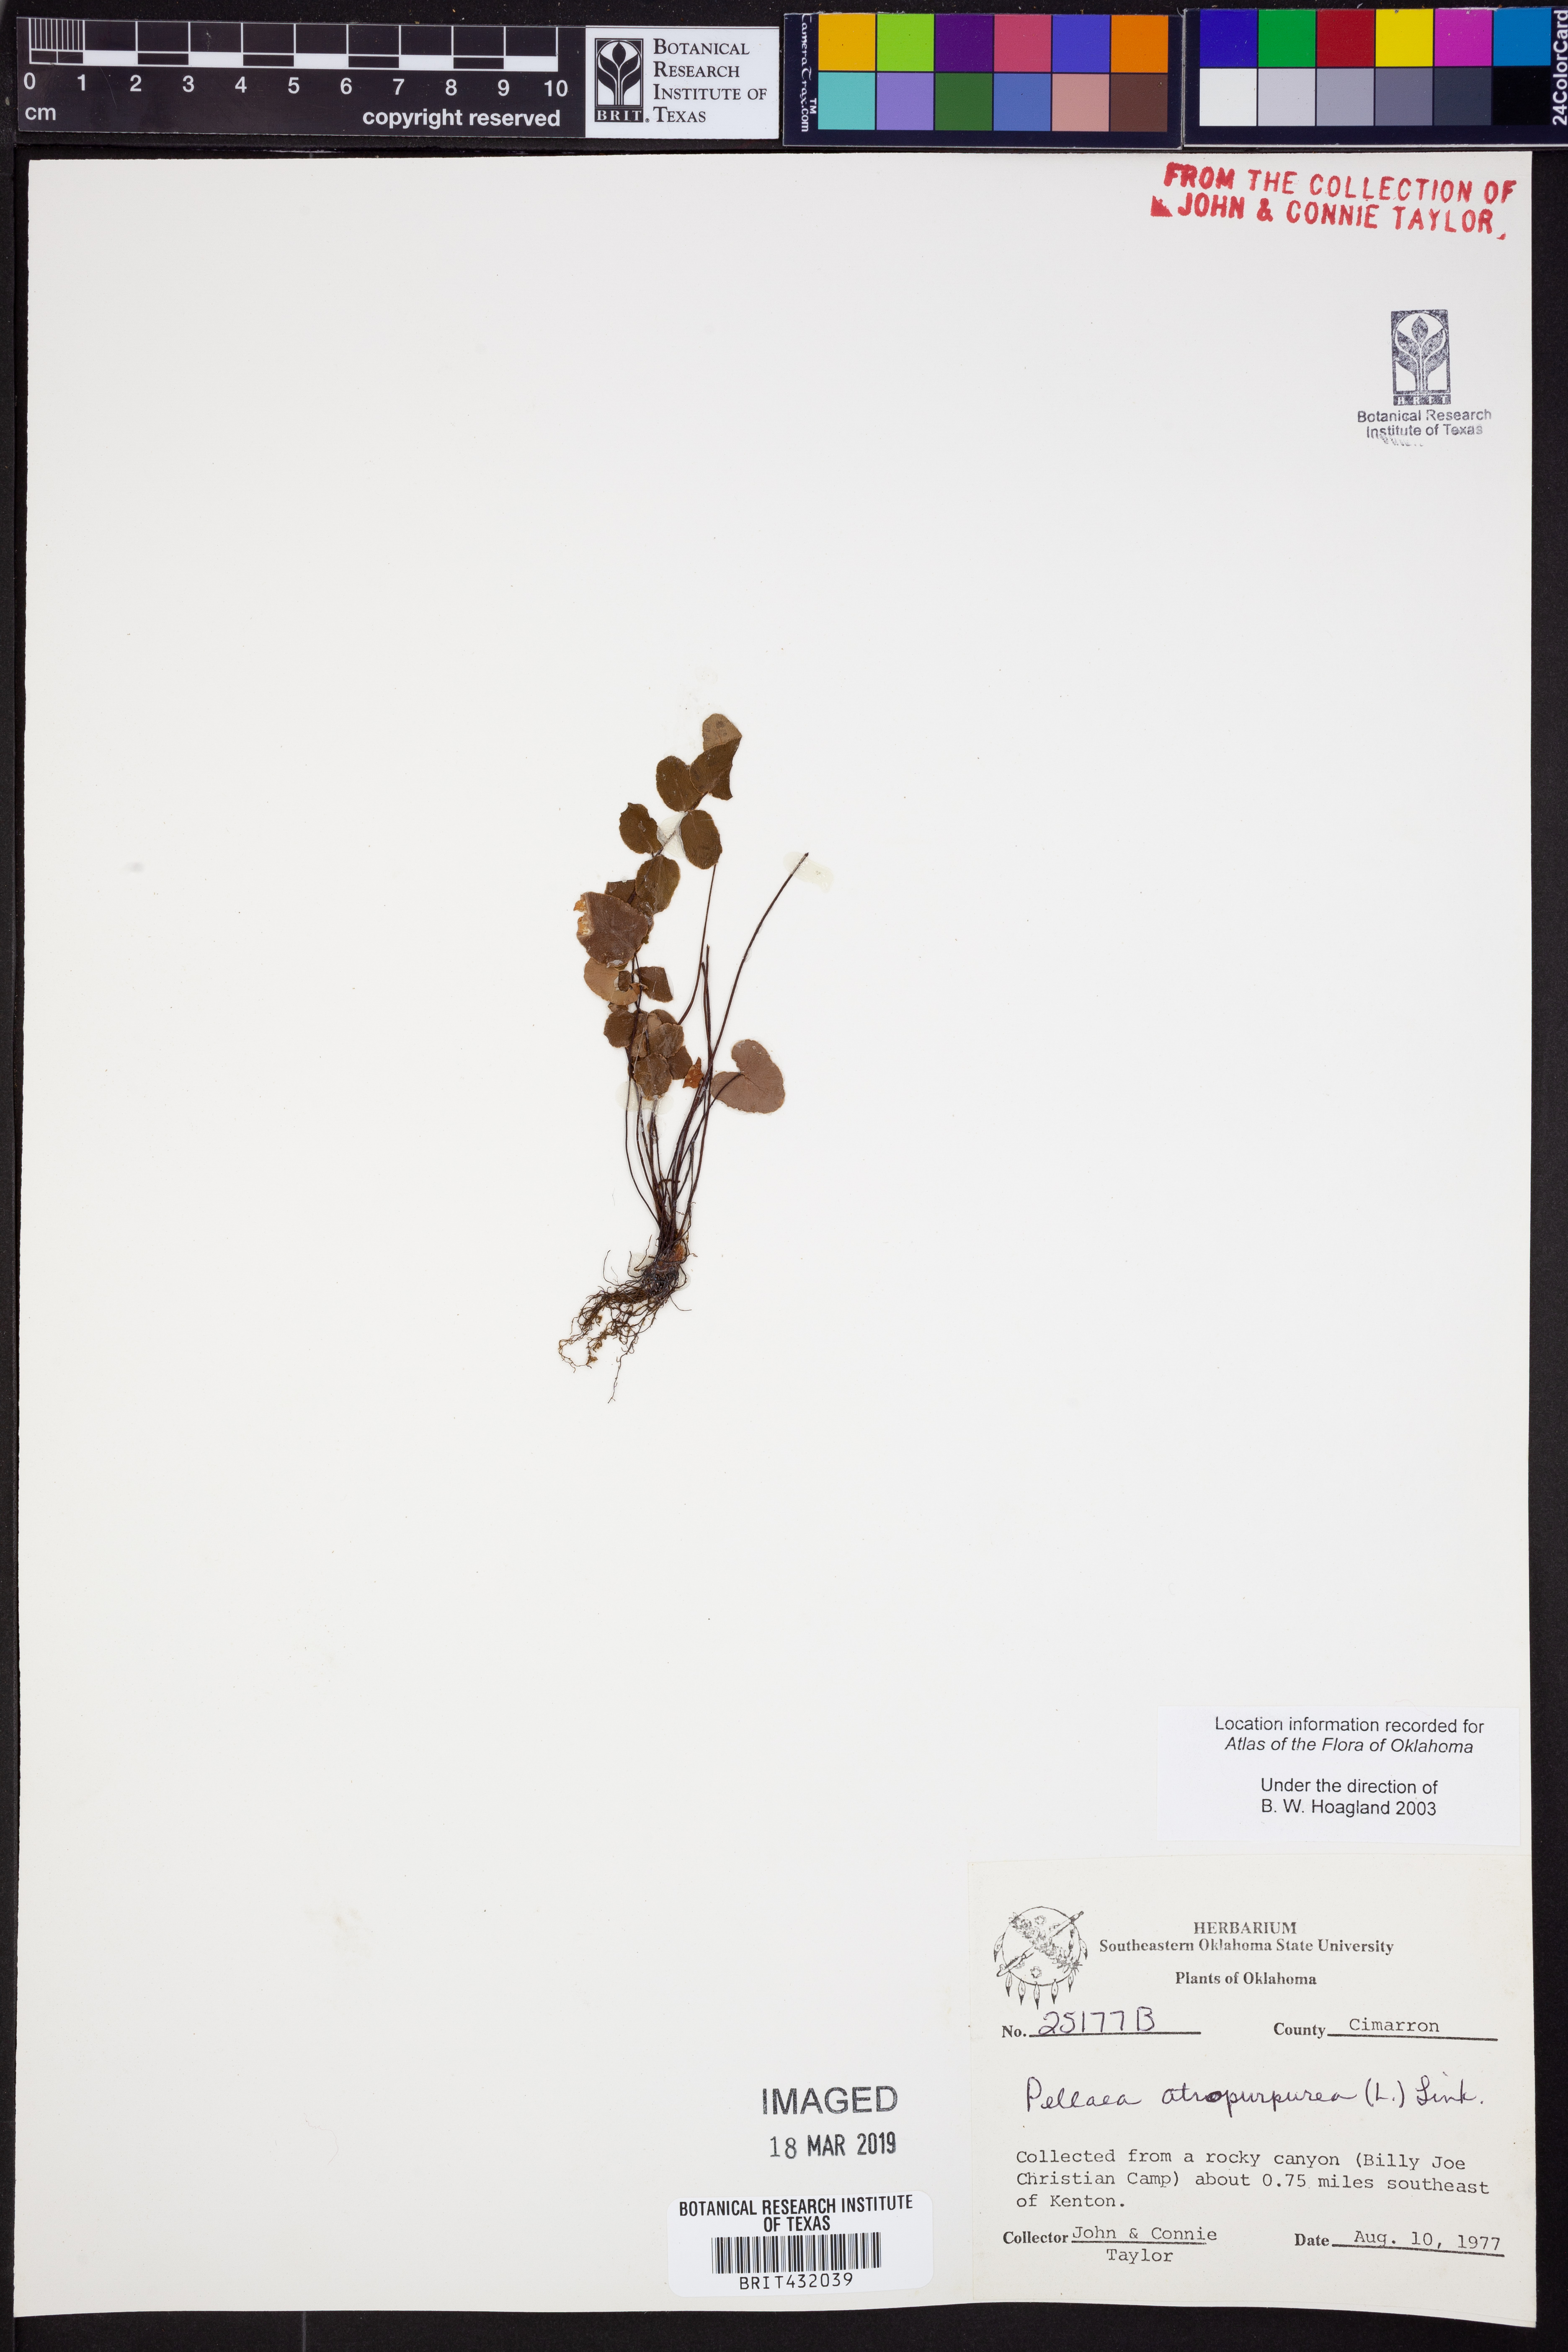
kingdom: Plantae
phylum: Tracheophyta
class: Polypodiopsida
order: Polypodiales
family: Pteridaceae
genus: Pellaea
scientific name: Pellaea atropurpurea
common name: Hairy cliffbrake
